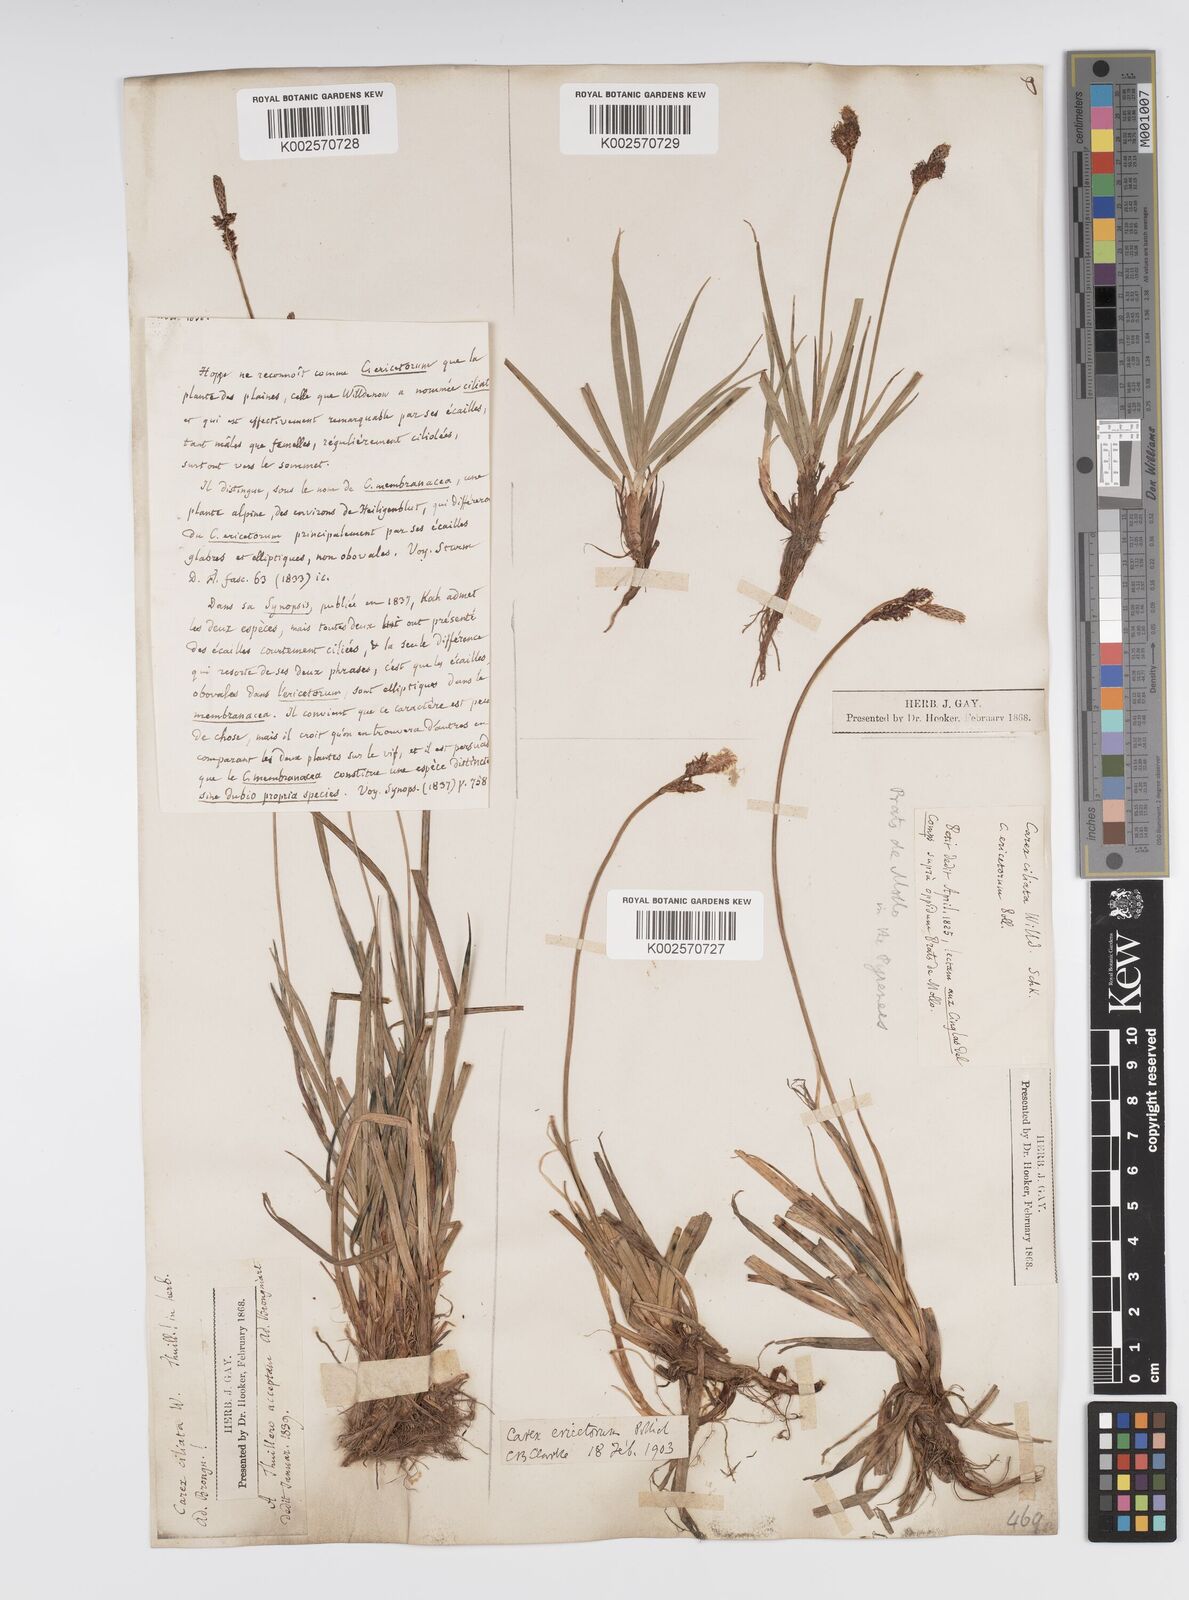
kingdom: Plantae
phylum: Tracheophyta
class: Liliopsida
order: Poales
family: Cyperaceae
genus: Carex
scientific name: Carex ericetorum
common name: Rare spring-sedge
